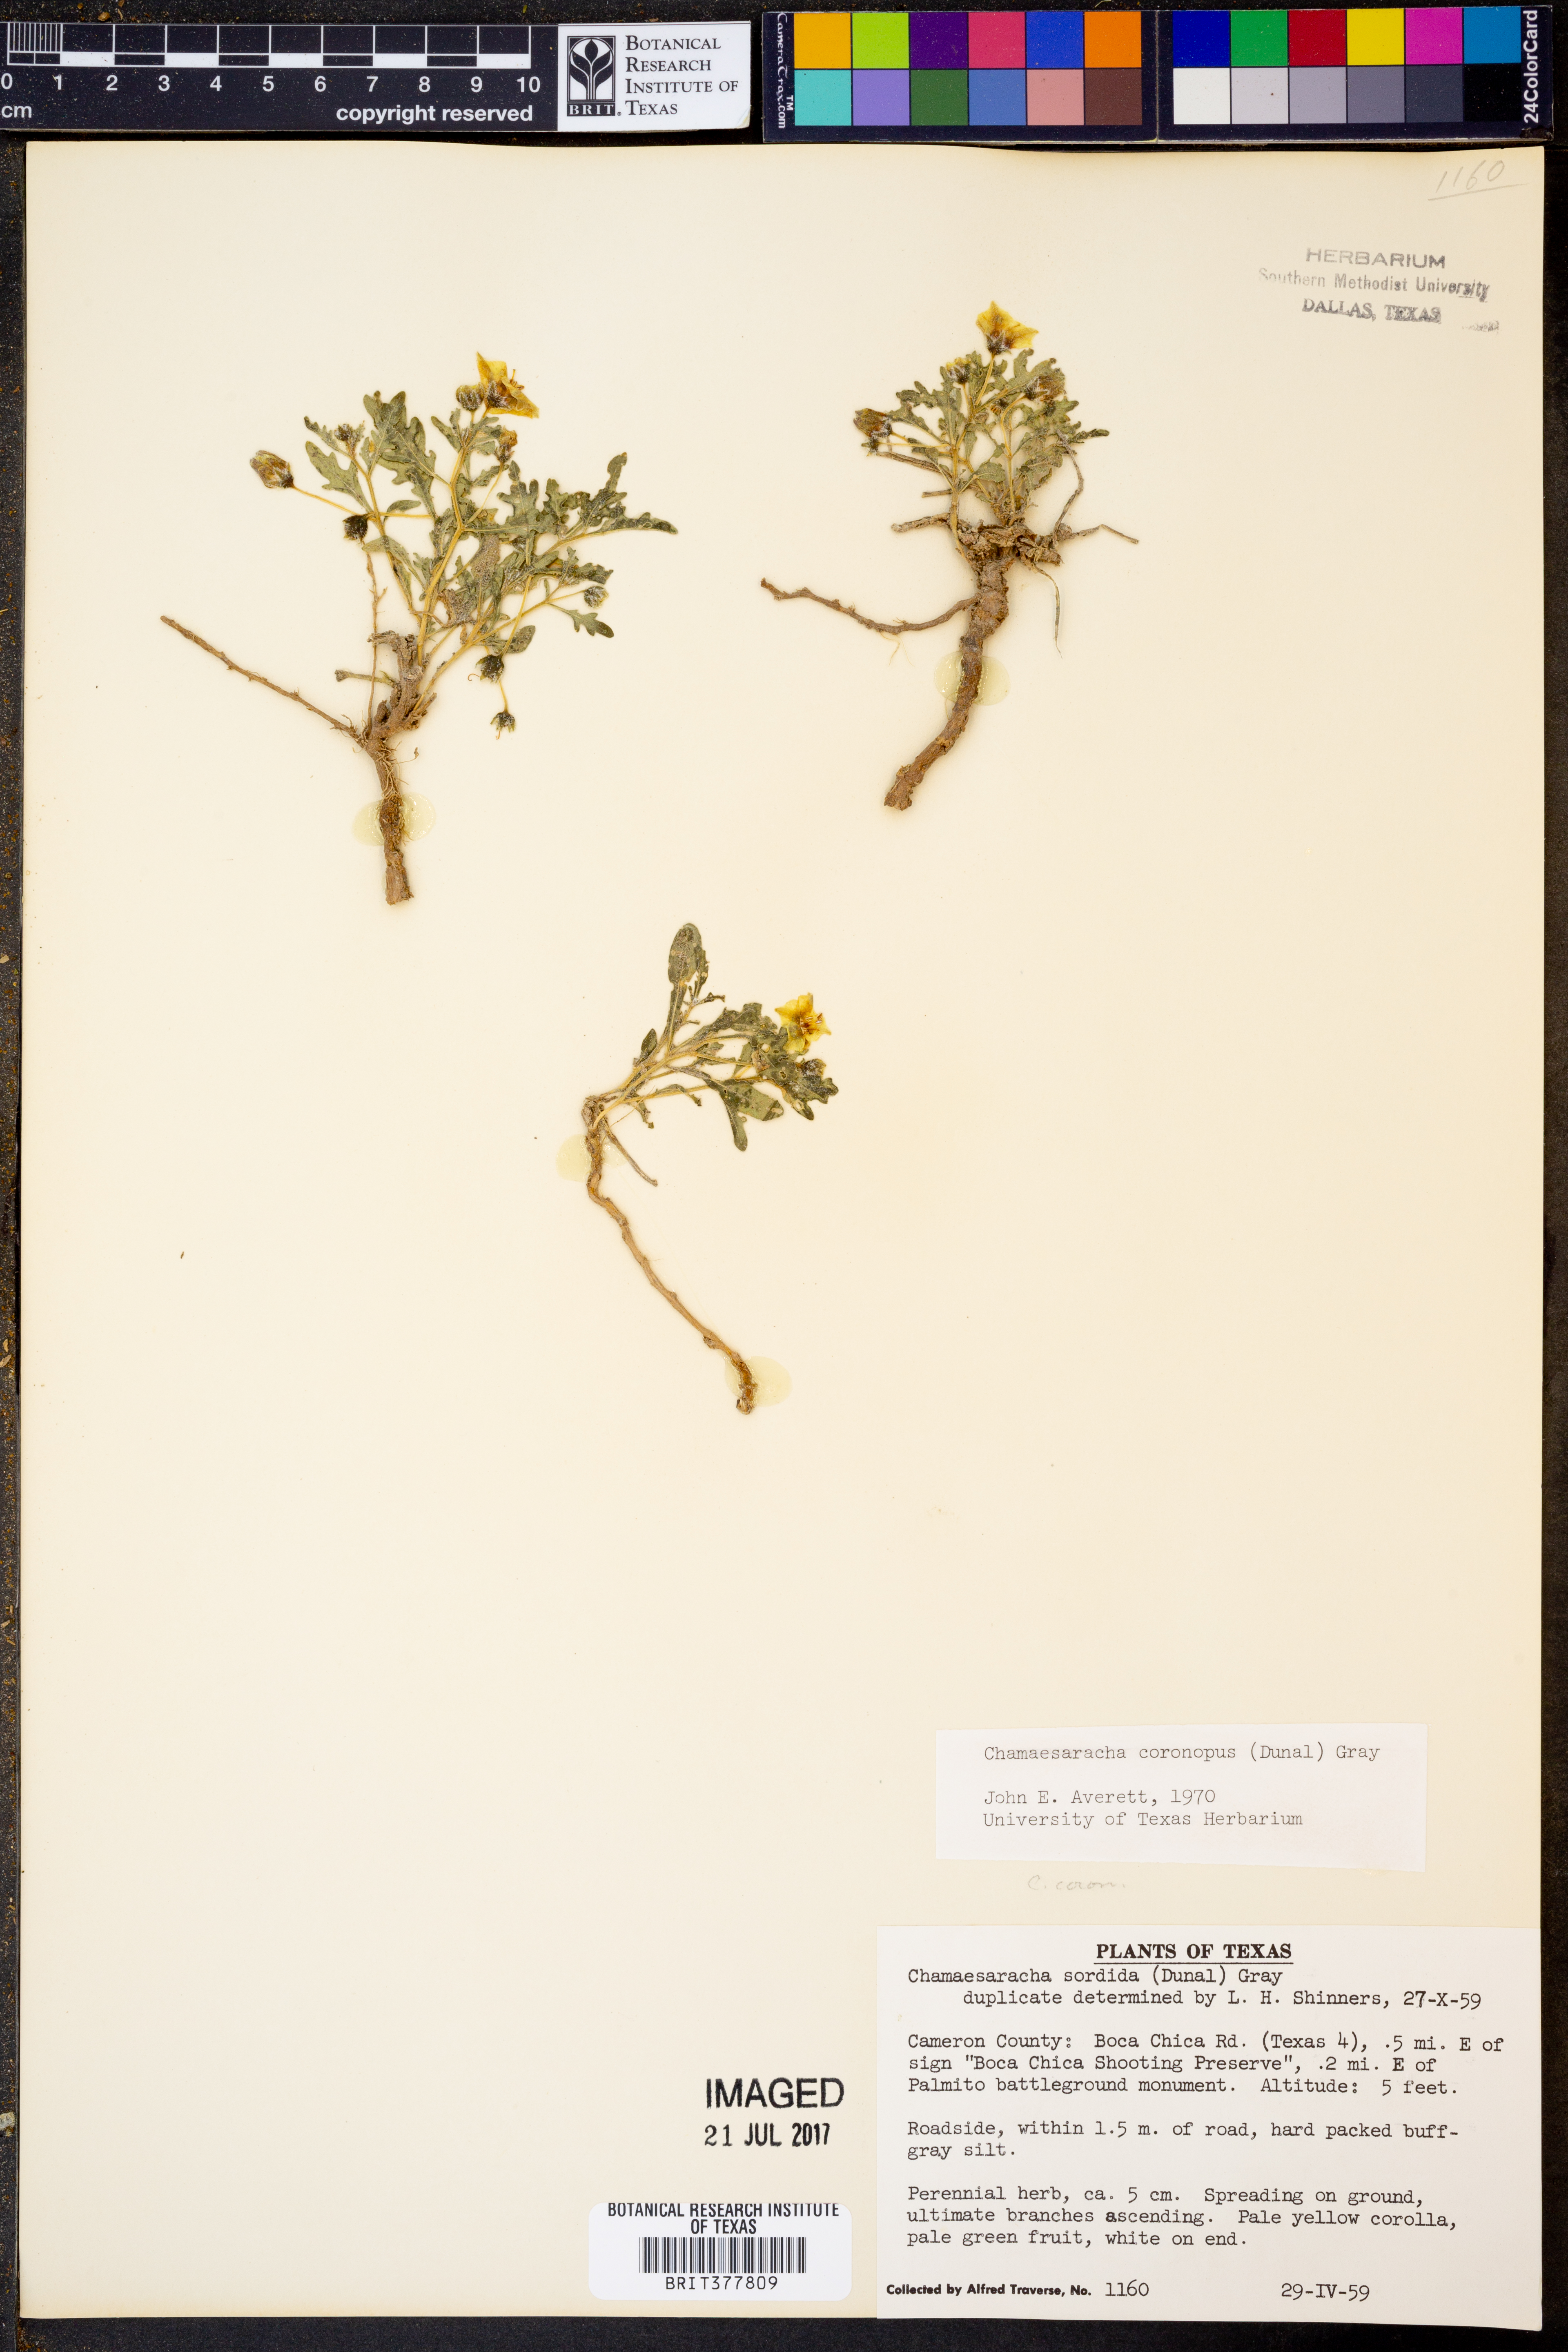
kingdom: Plantae
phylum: Tracheophyta
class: Magnoliopsida
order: Solanales
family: Solanaceae
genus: Chamaesaracha
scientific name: Chamaesaracha coronopus
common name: Smooth chamaesaracha
